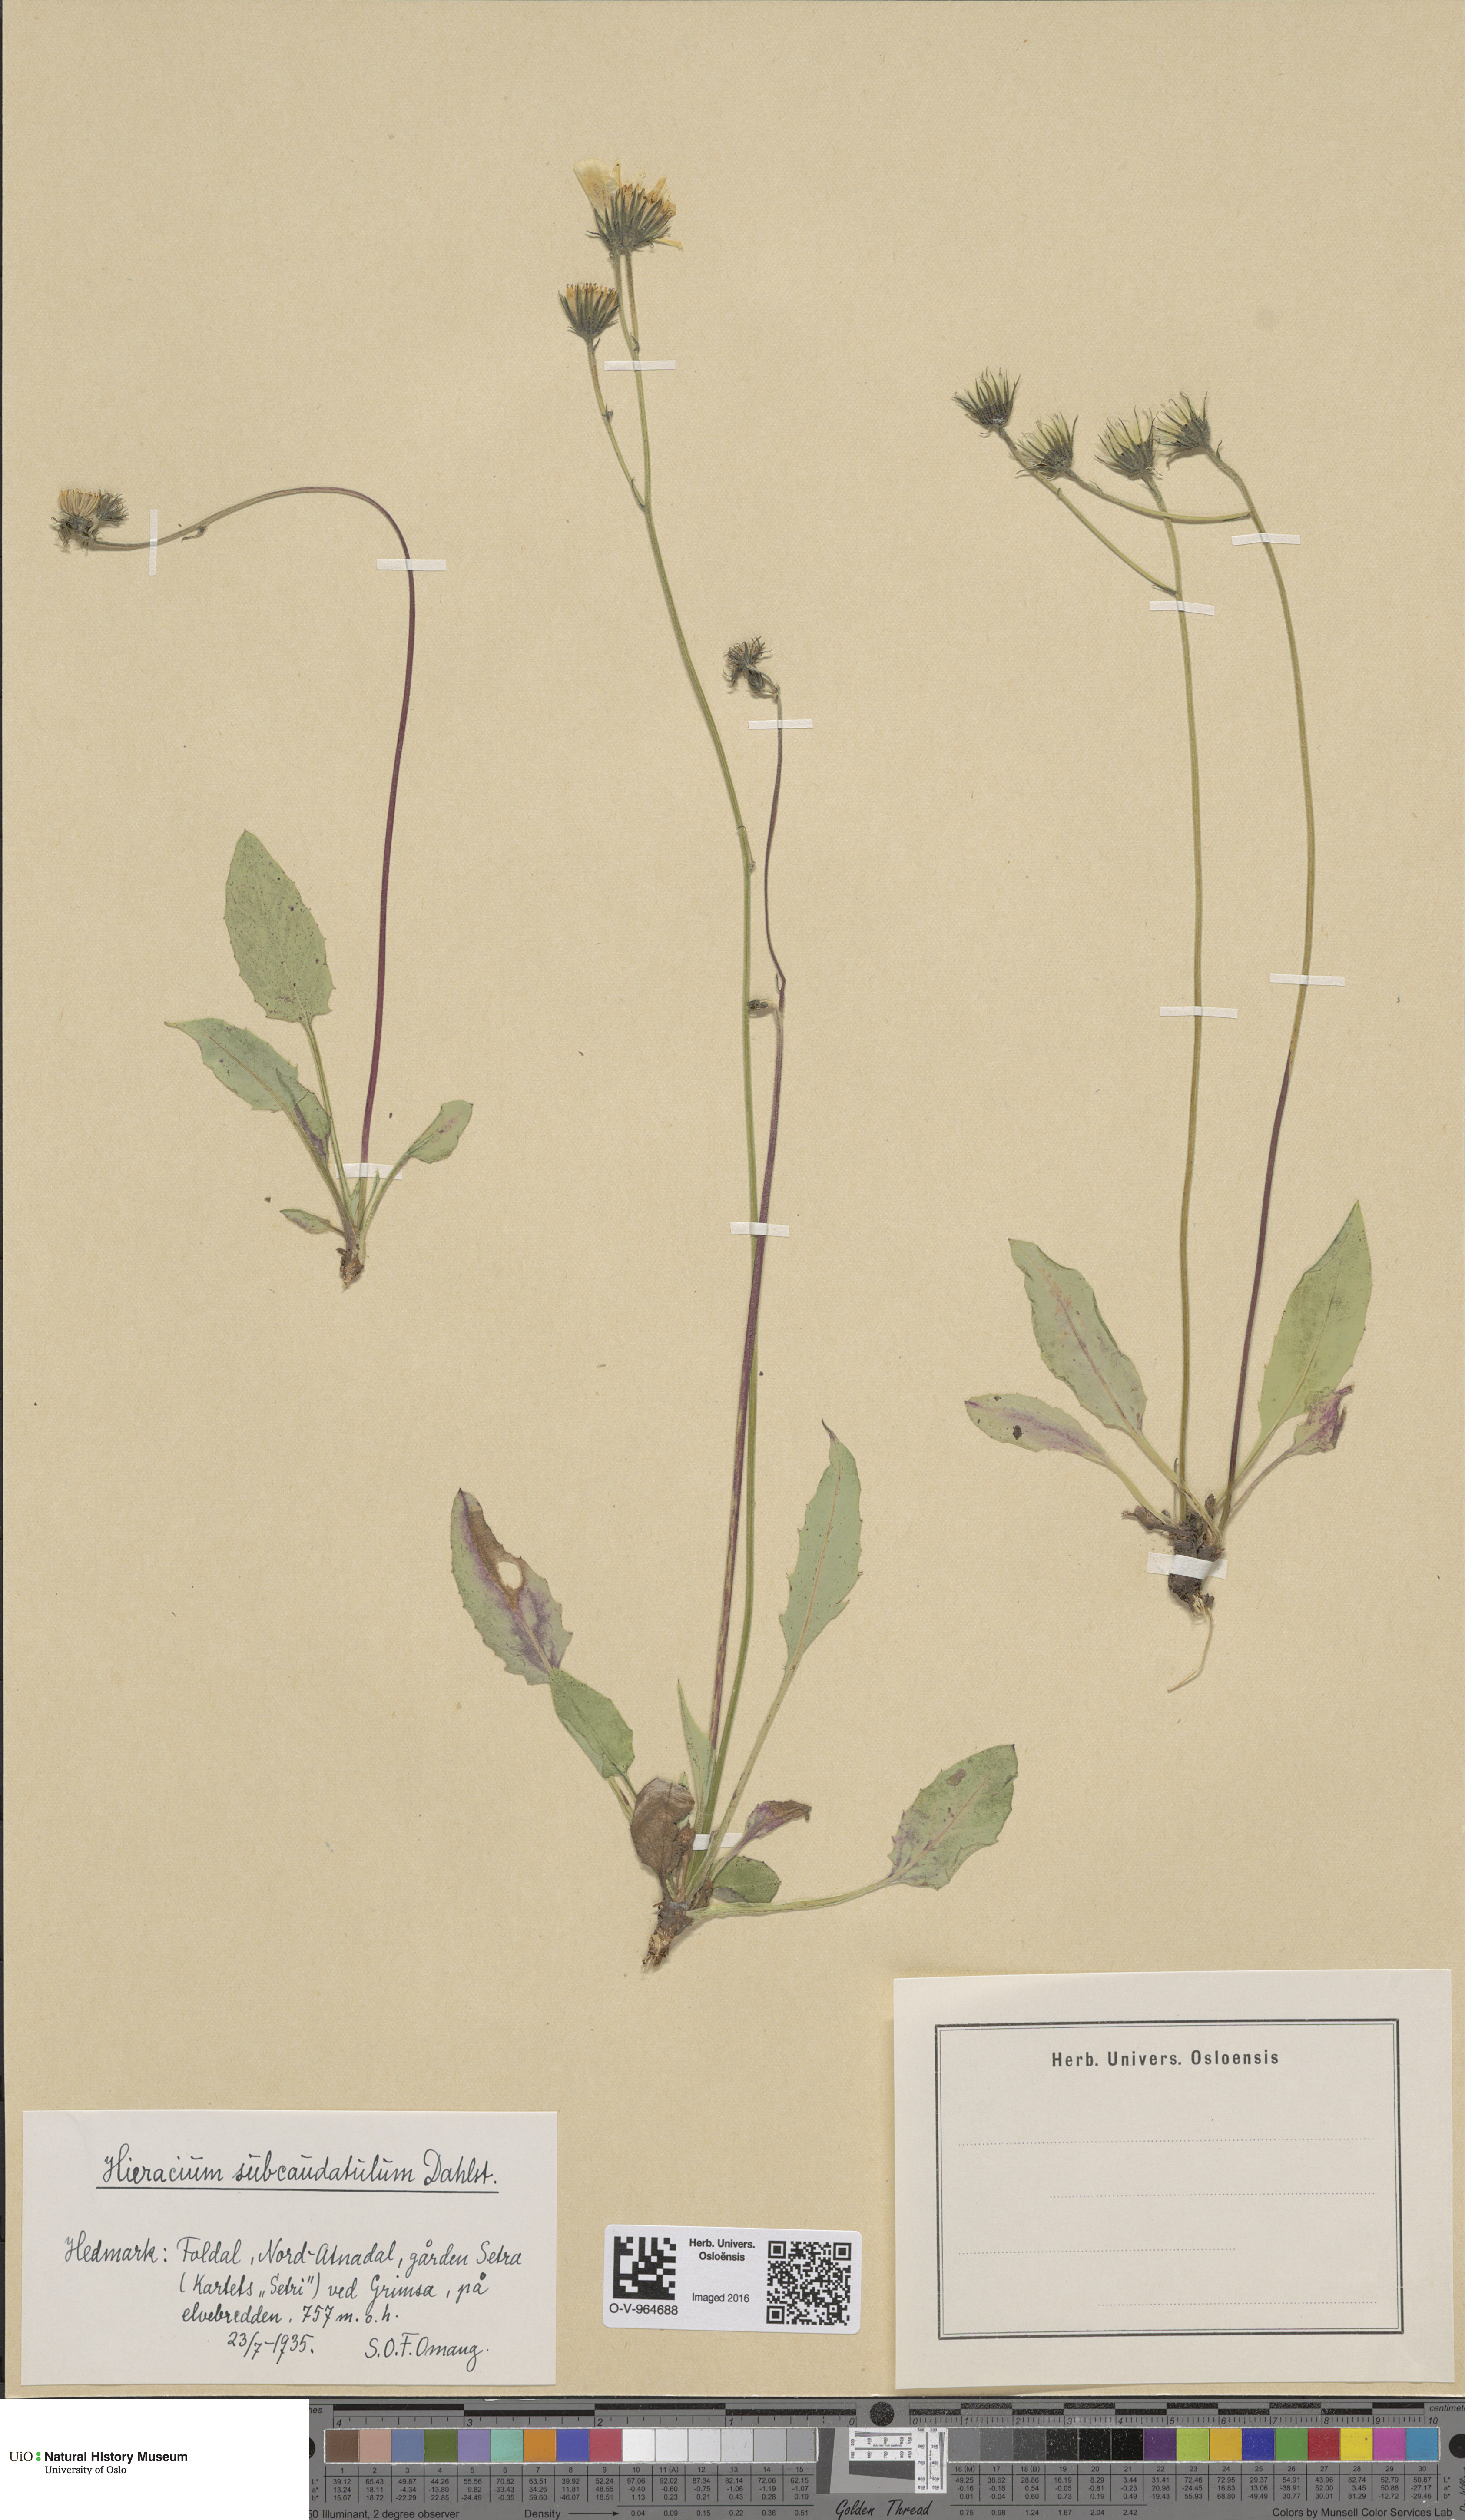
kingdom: Plantae
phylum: Tracheophyta
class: Magnoliopsida
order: Asterales
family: Asteraceae
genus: Hieracium
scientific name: Hieracium
